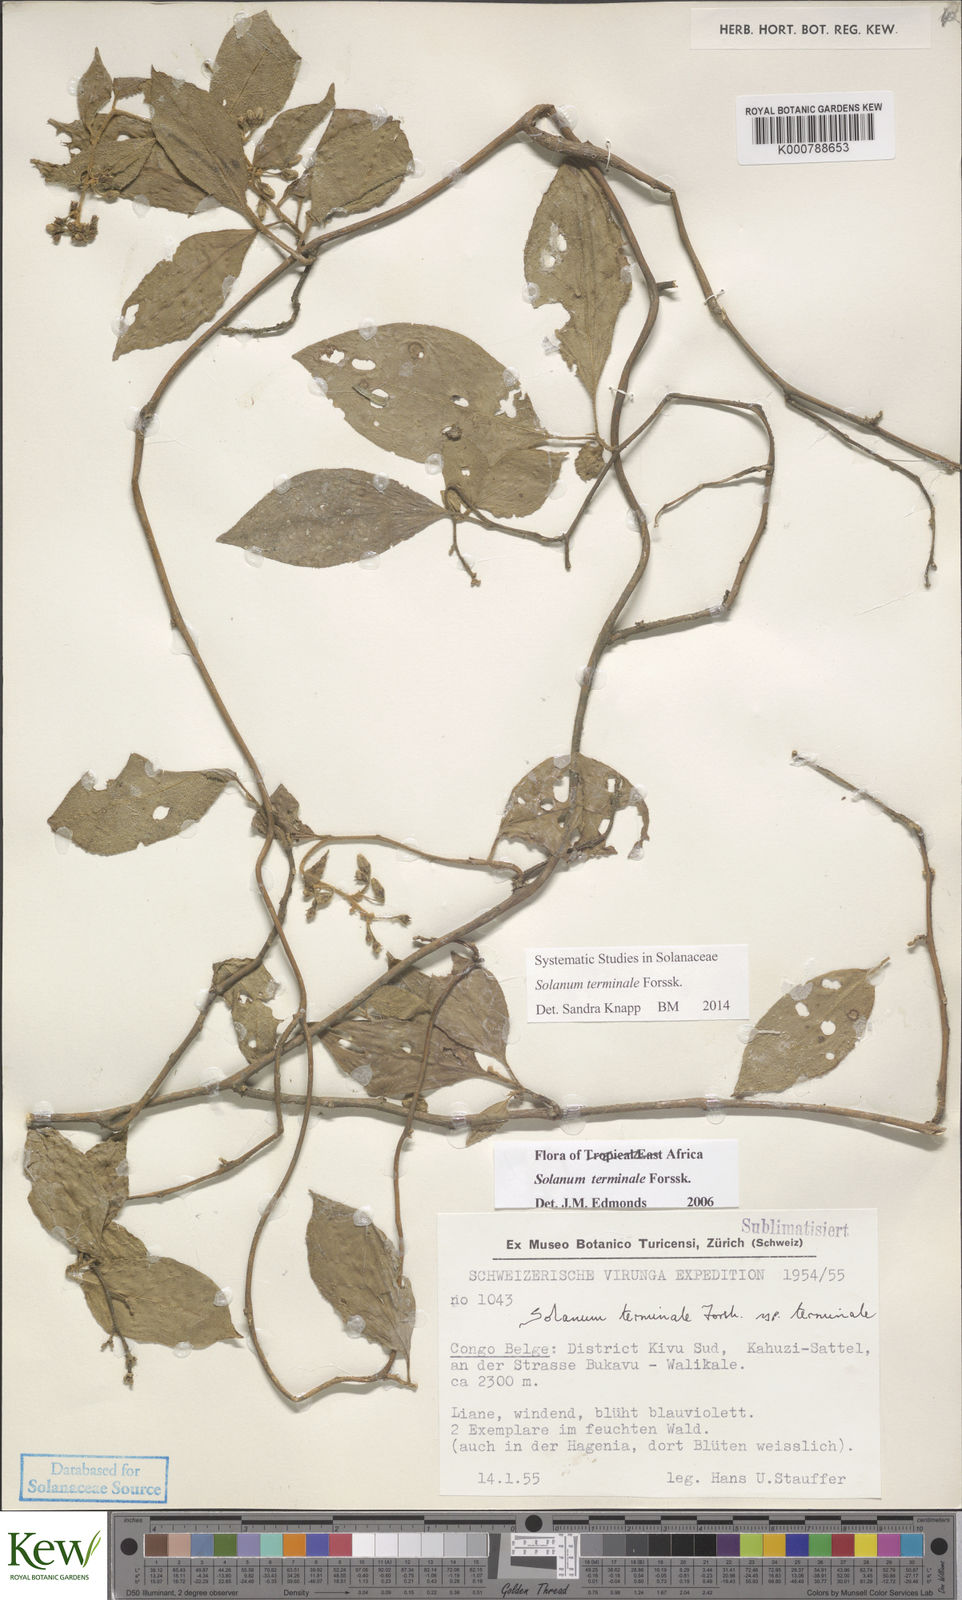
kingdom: Plantae
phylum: Tracheophyta
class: Magnoliopsida
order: Solanales
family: Solanaceae
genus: Solanum
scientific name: Solanum terminale
